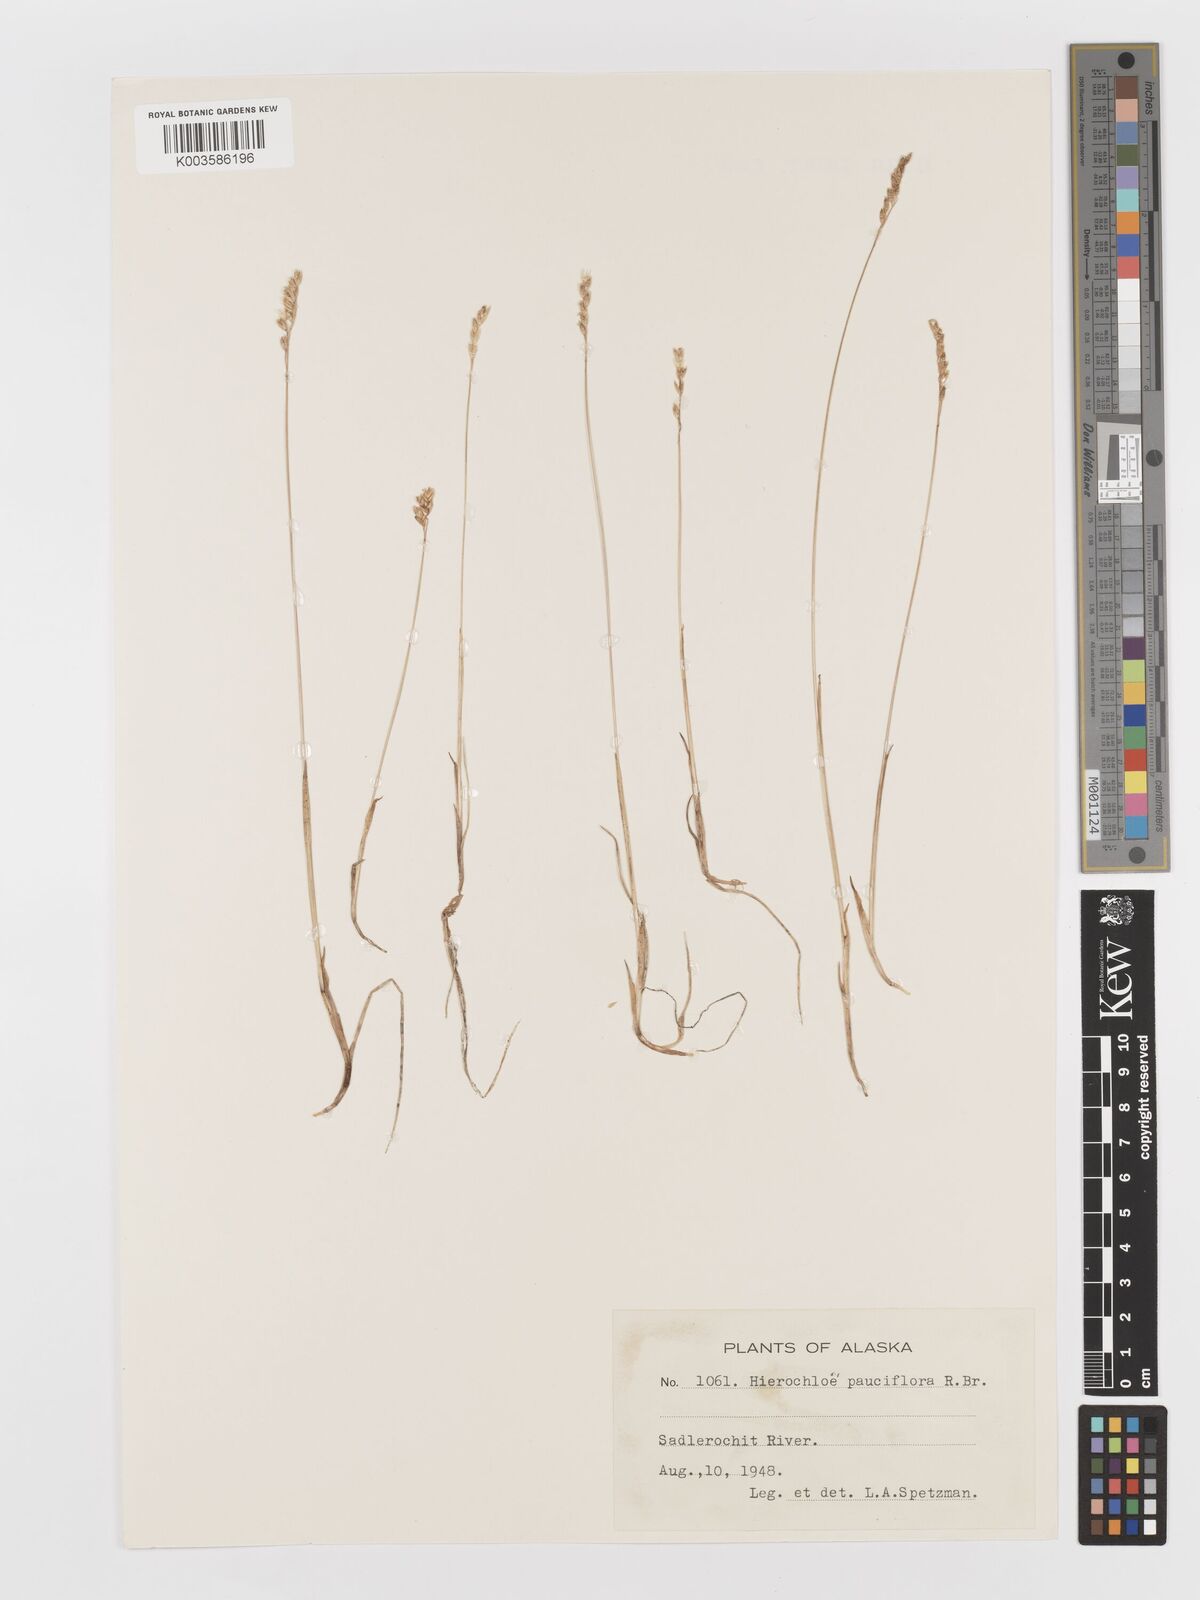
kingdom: Plantae
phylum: Tracheophyta
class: Liliopsida
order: Poales
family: Poaceae
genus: Anthoxanthum
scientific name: Anthoxanthum arcticum
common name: Arctic sweetgrass
